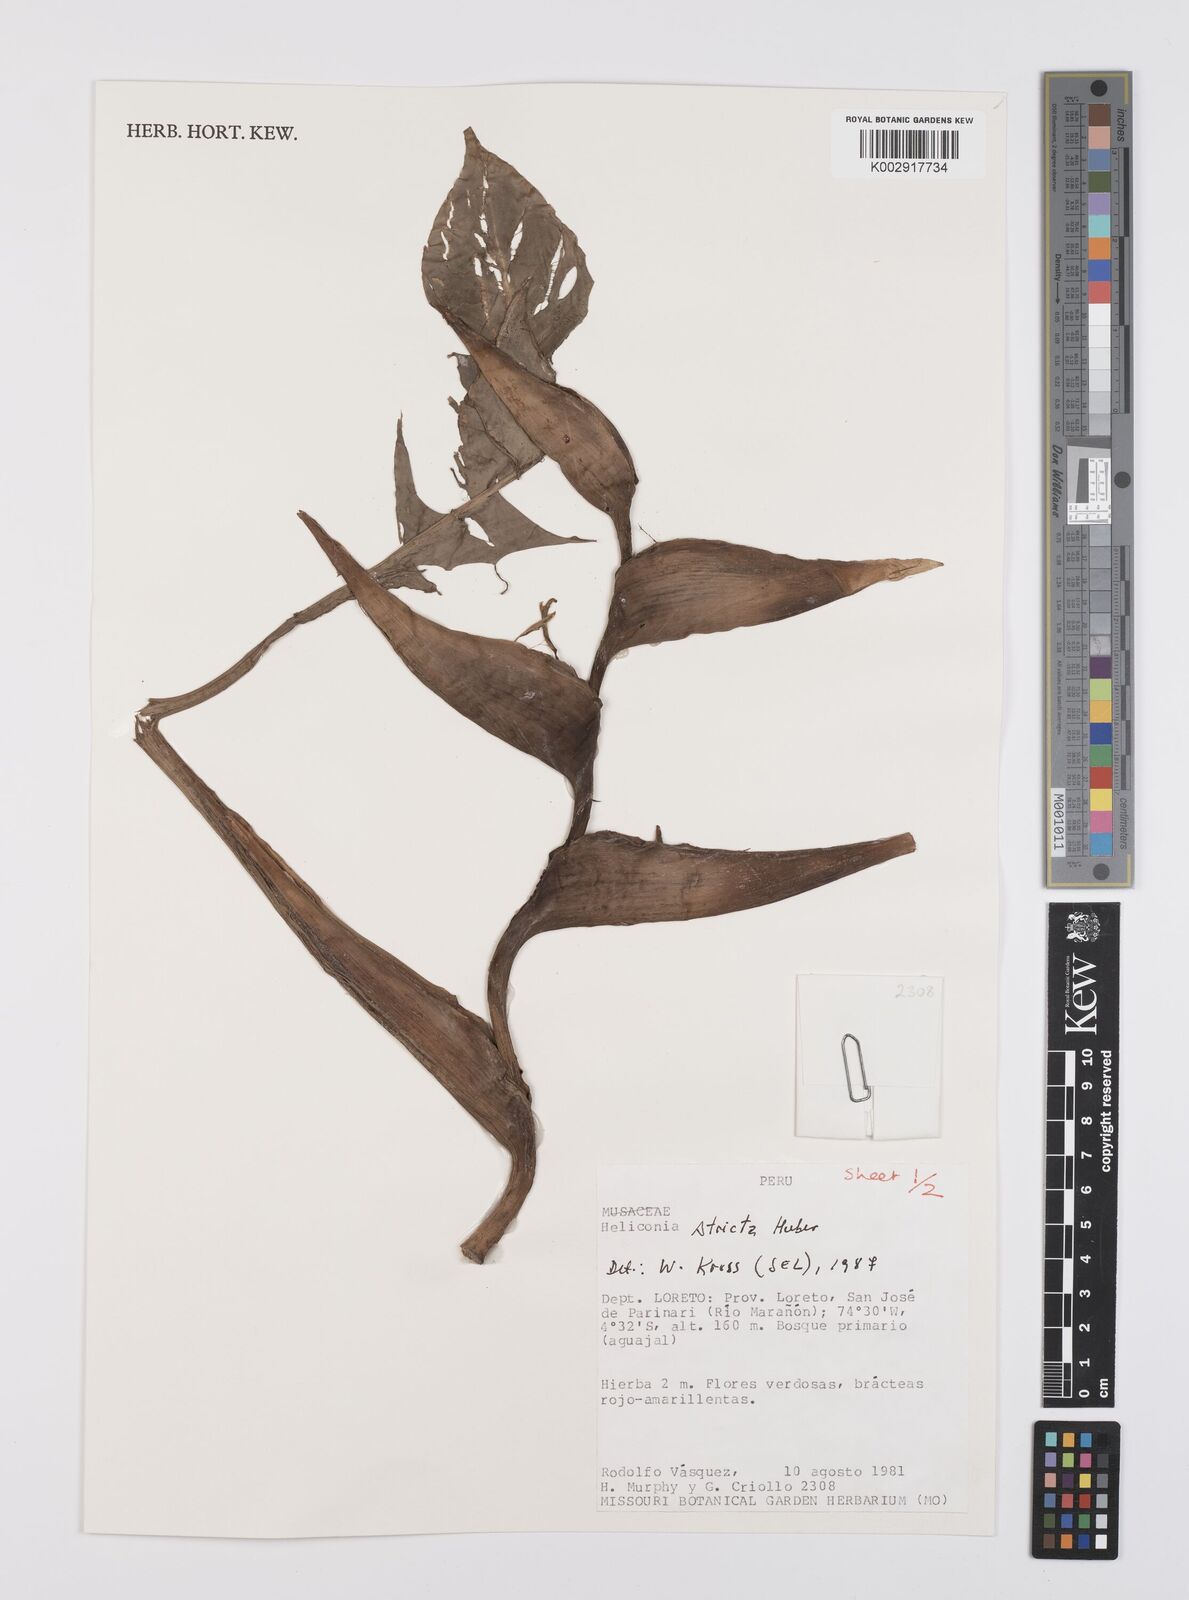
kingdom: Plantae
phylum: Tracheophyta
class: Liliopsida
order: Zingiberales
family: Heliconiaceae
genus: Heliconia
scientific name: Heliconia stricta
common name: Small lobster claw
